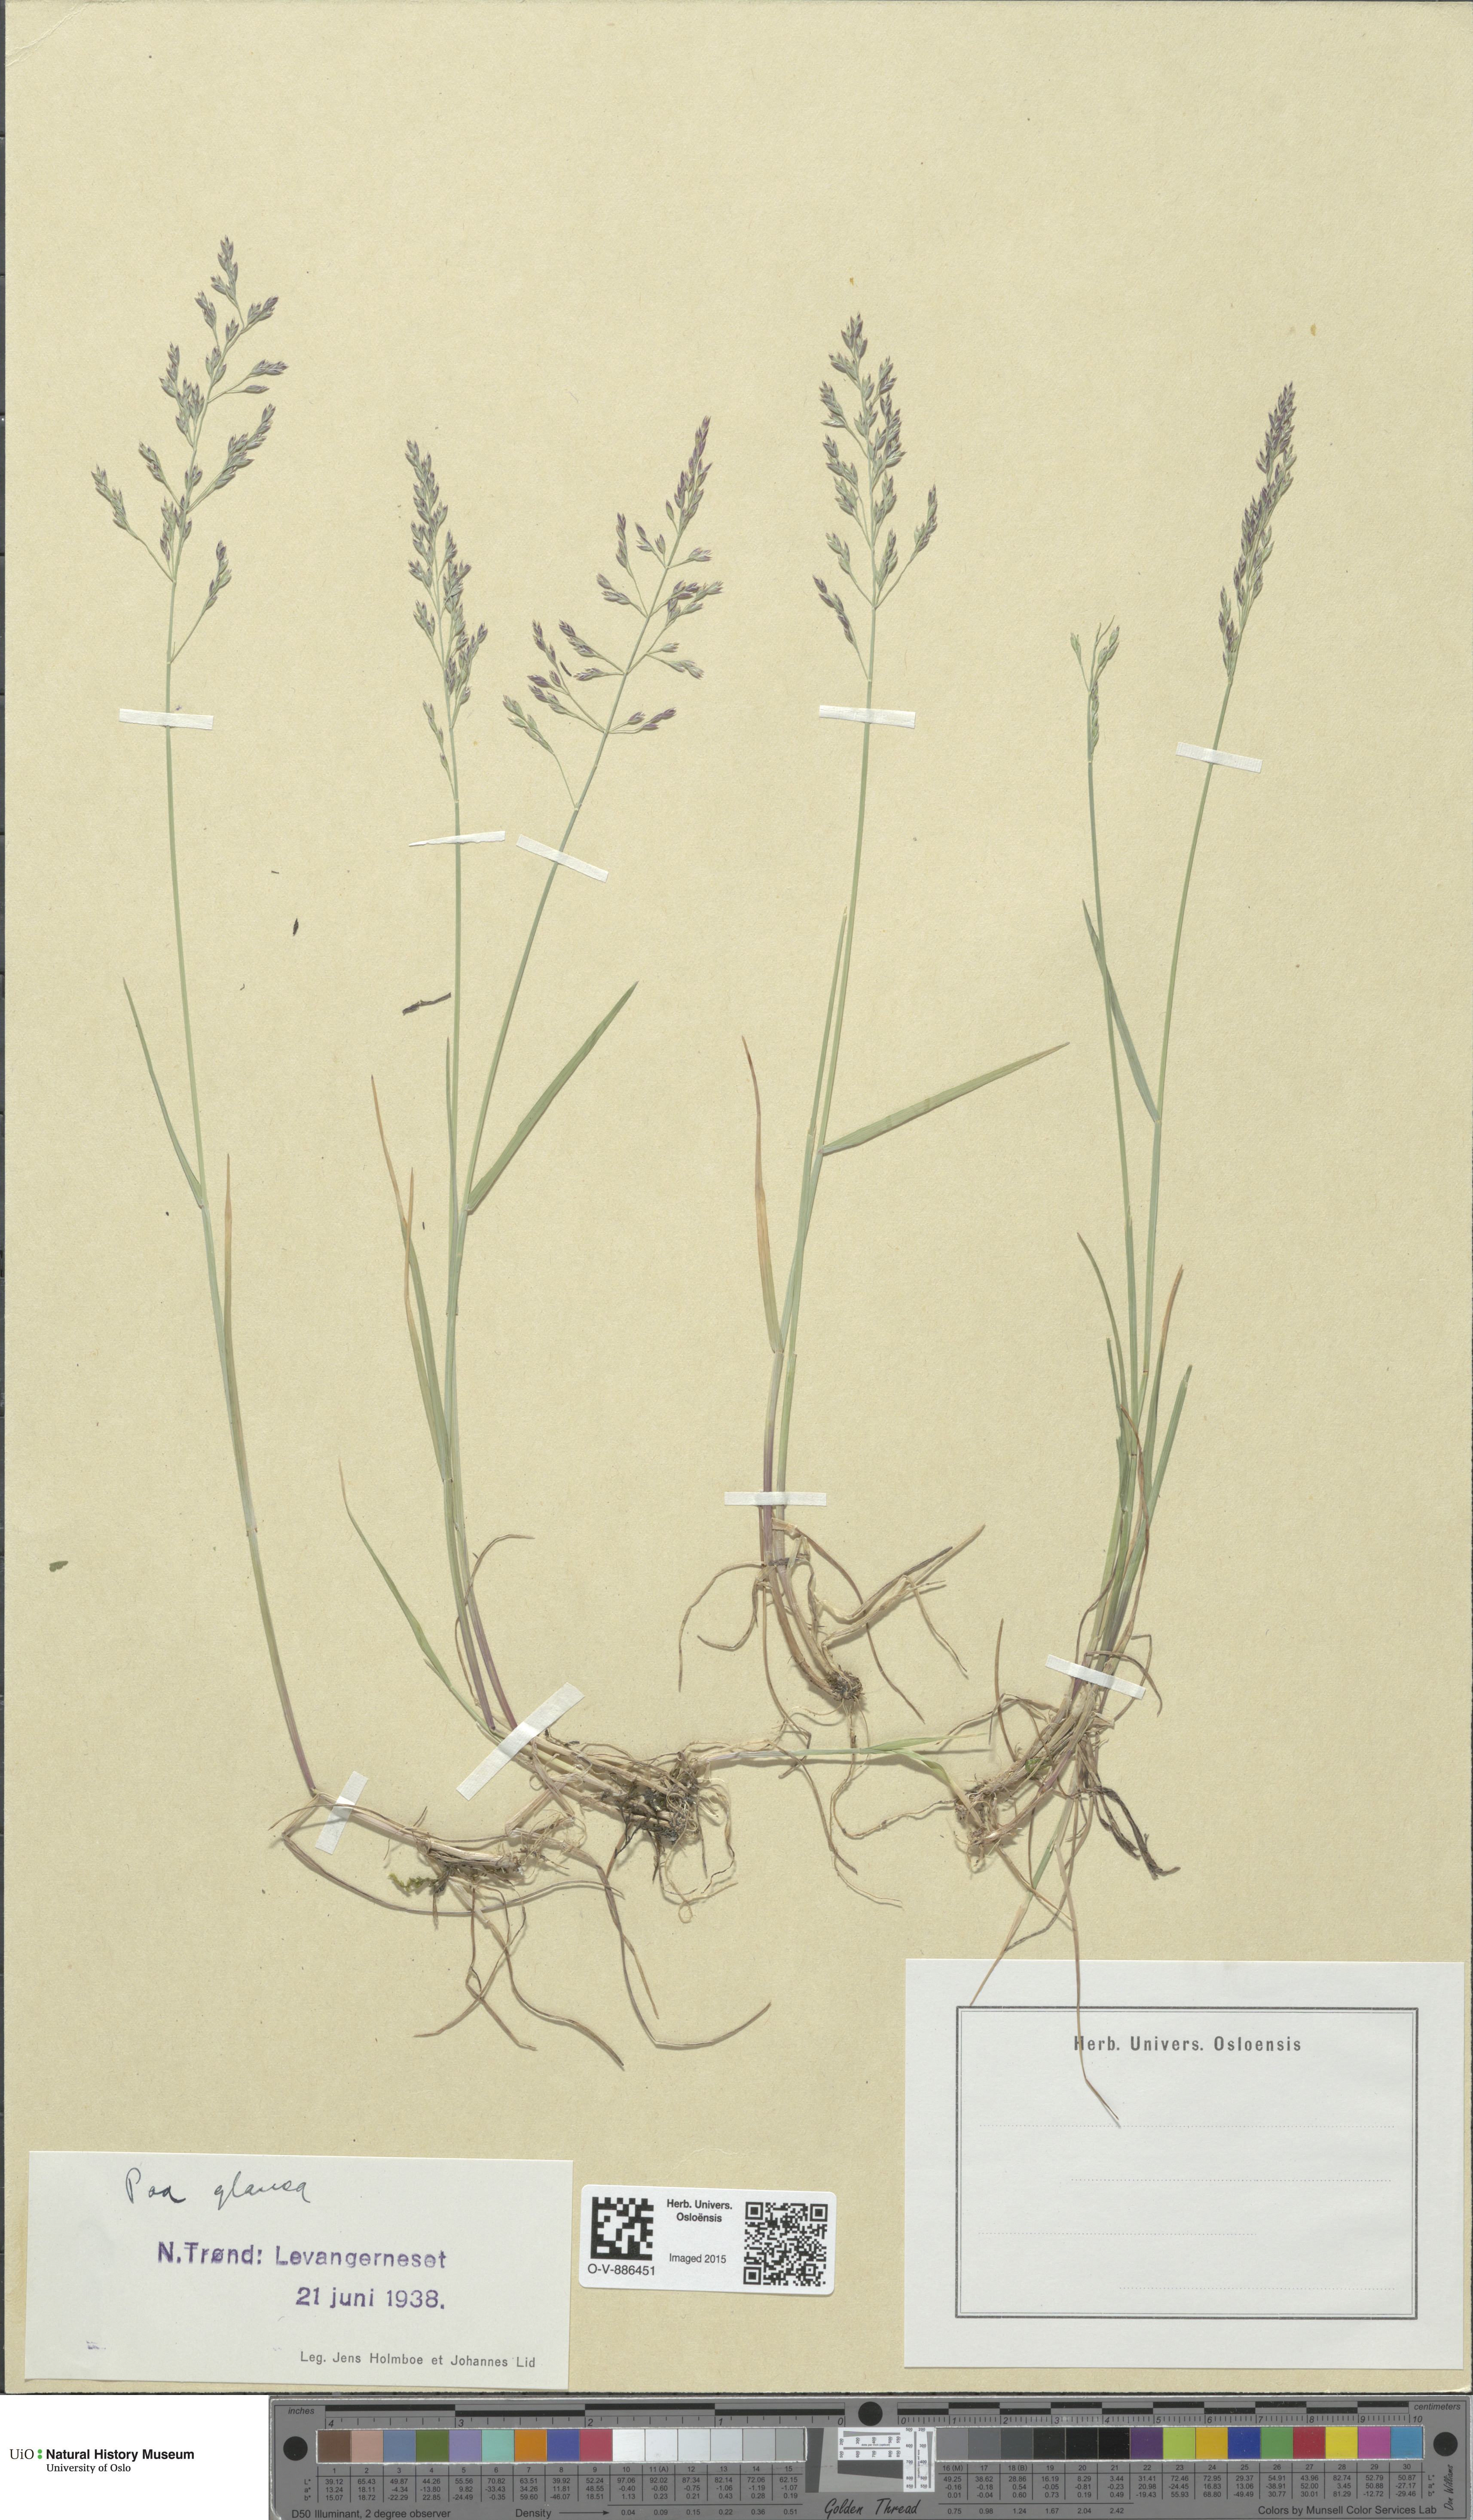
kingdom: Plantae
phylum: Tracheophyta
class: Liliopsida
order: Poales
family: Poaceae
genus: Poa
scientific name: Poa glauca
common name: Glaucous bluegrass
